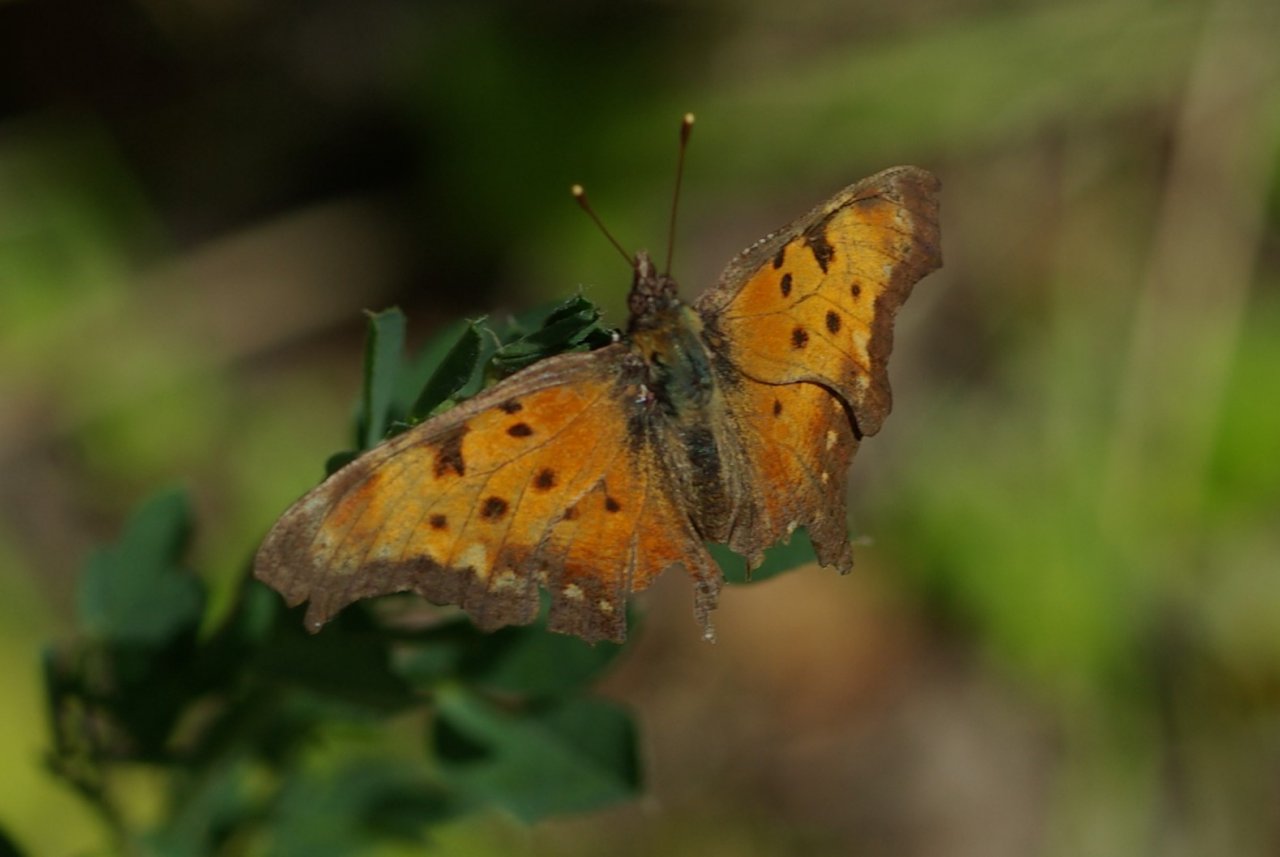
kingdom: Animalia
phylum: Arthropoda
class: Insecta
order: Lepidoptera
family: Nymphalidae
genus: Polygonia
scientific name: Polygonia progne
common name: Gray Comma
